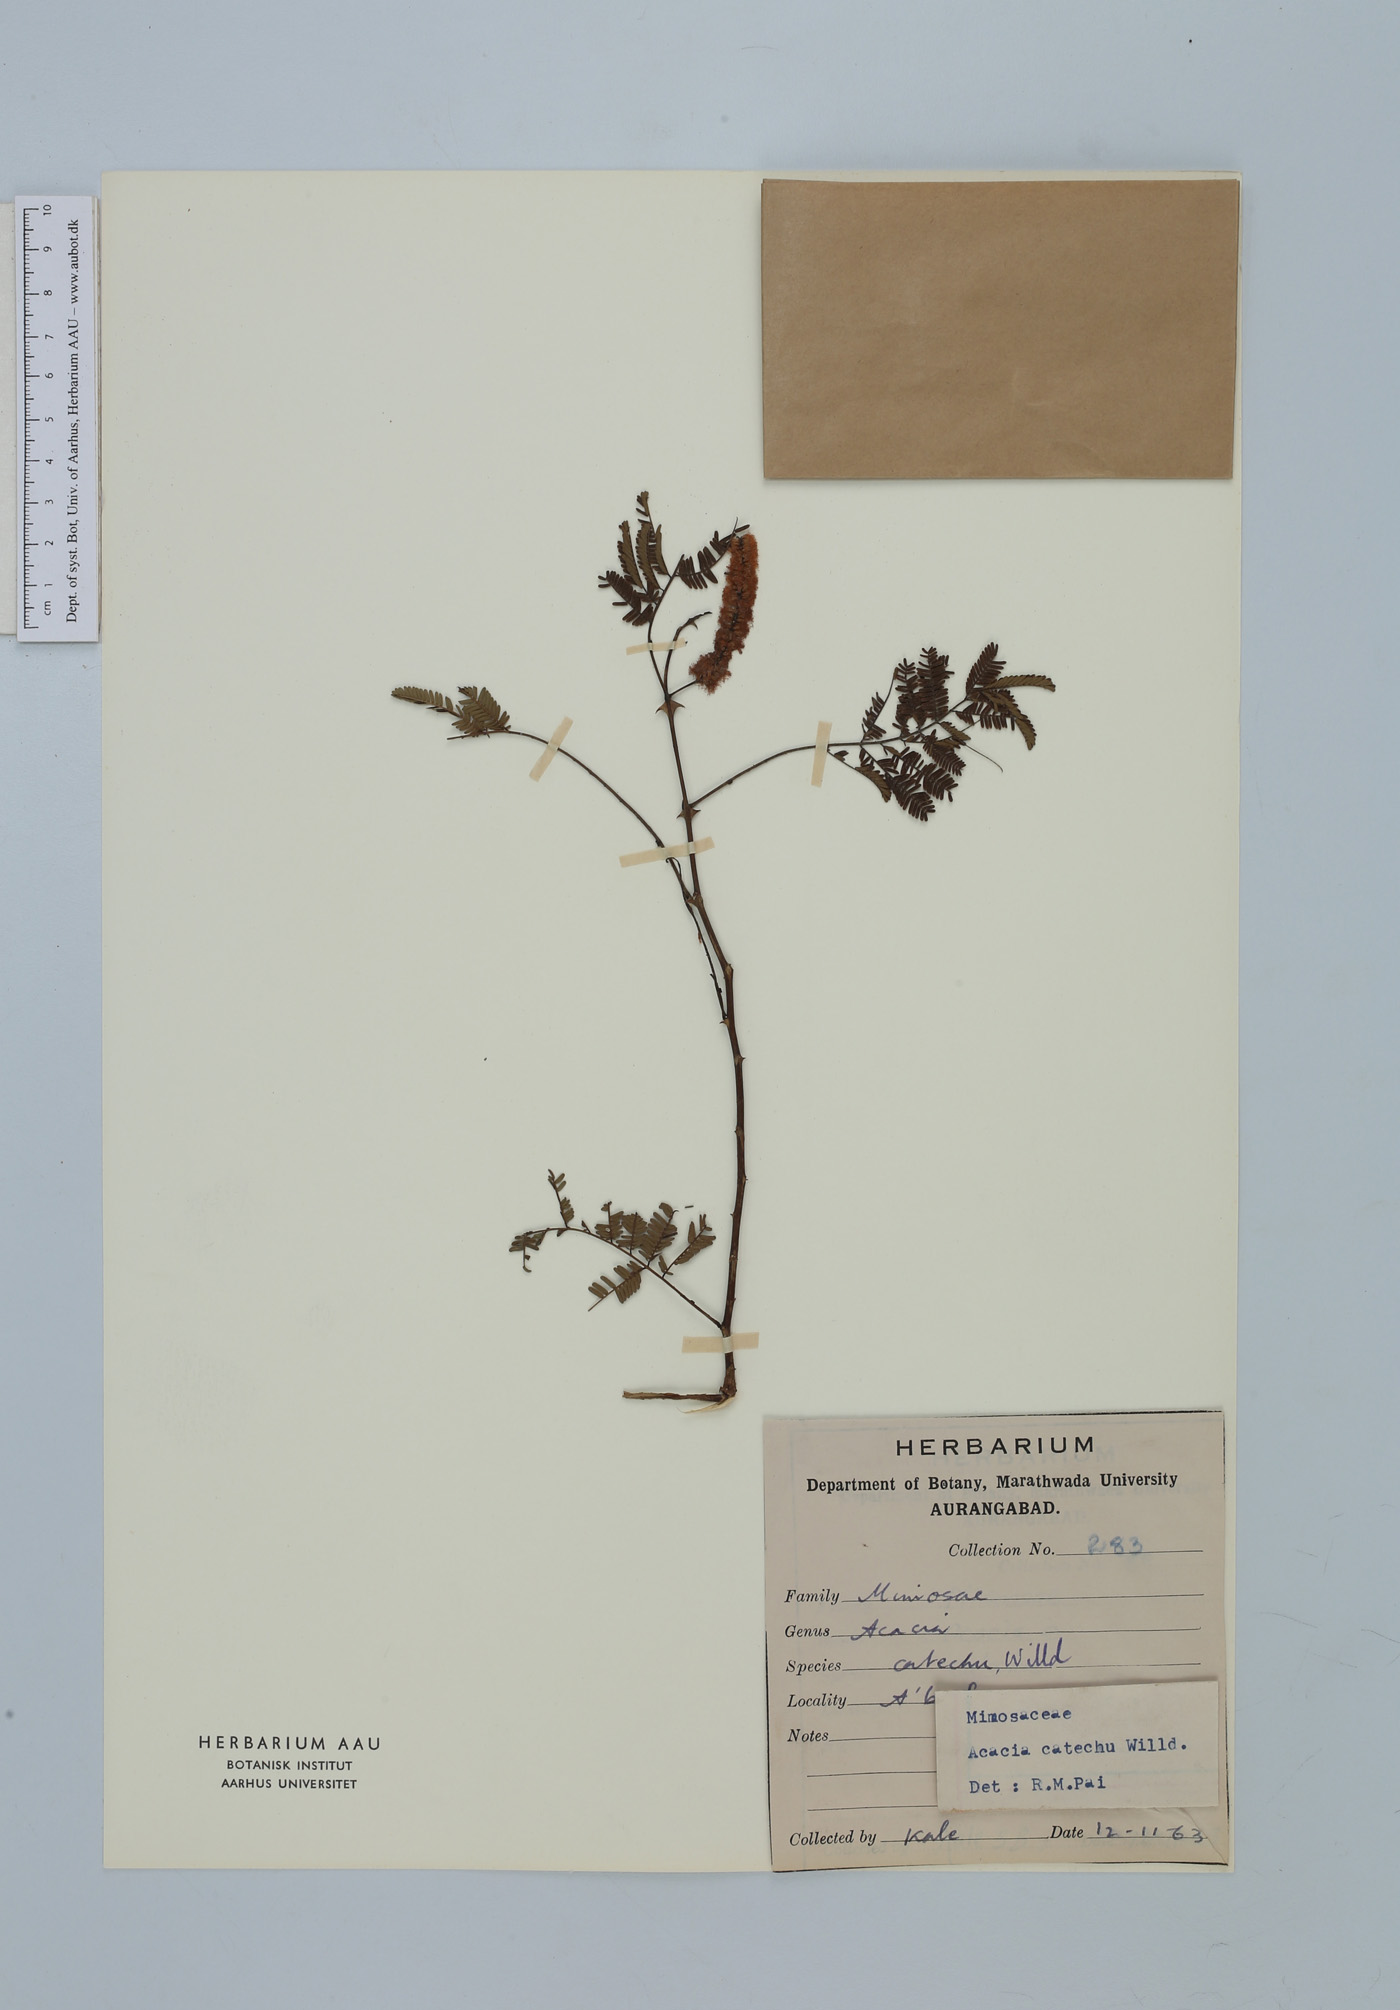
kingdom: Plantae
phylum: Tracheophyta
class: Magnoliopsida
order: Fabales
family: Fabaceae
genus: Senegalia
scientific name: Senegalia catechu
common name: Black cutch
